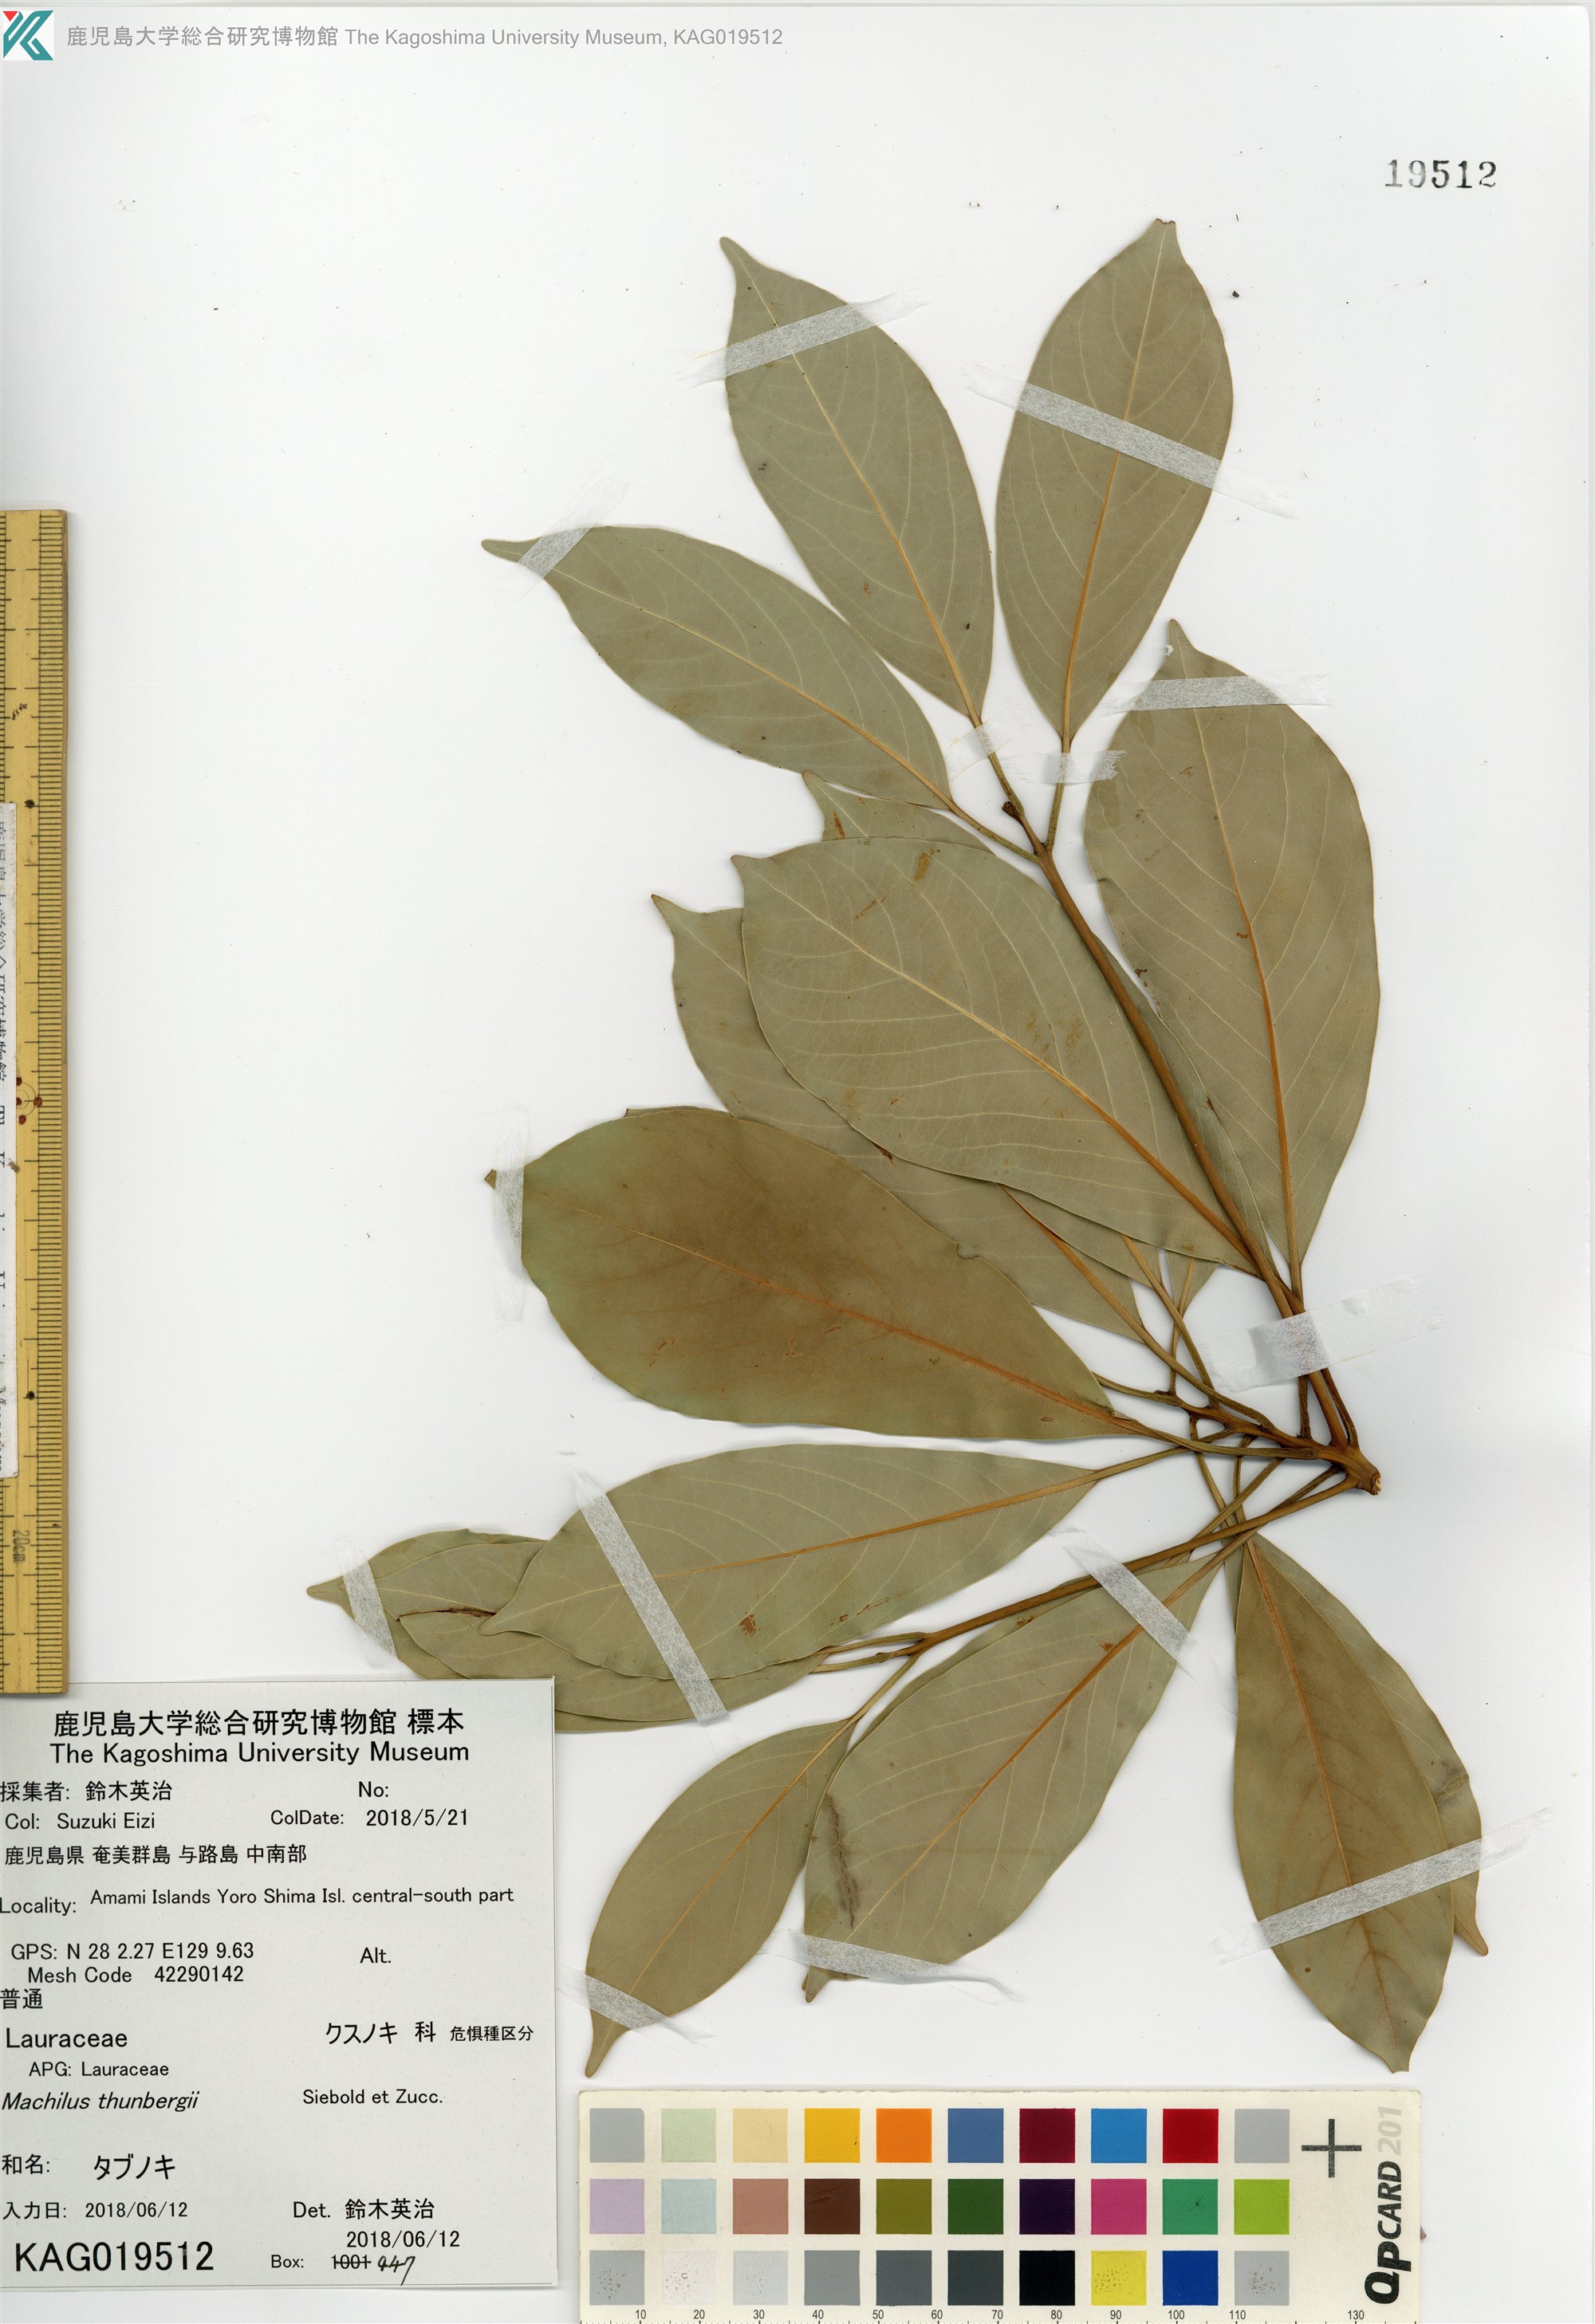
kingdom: Plantae
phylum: Tracheophyta
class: Magnoliopsida
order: Laurales
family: Lauraceae
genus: Machilus
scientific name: Machilus thunbergii
